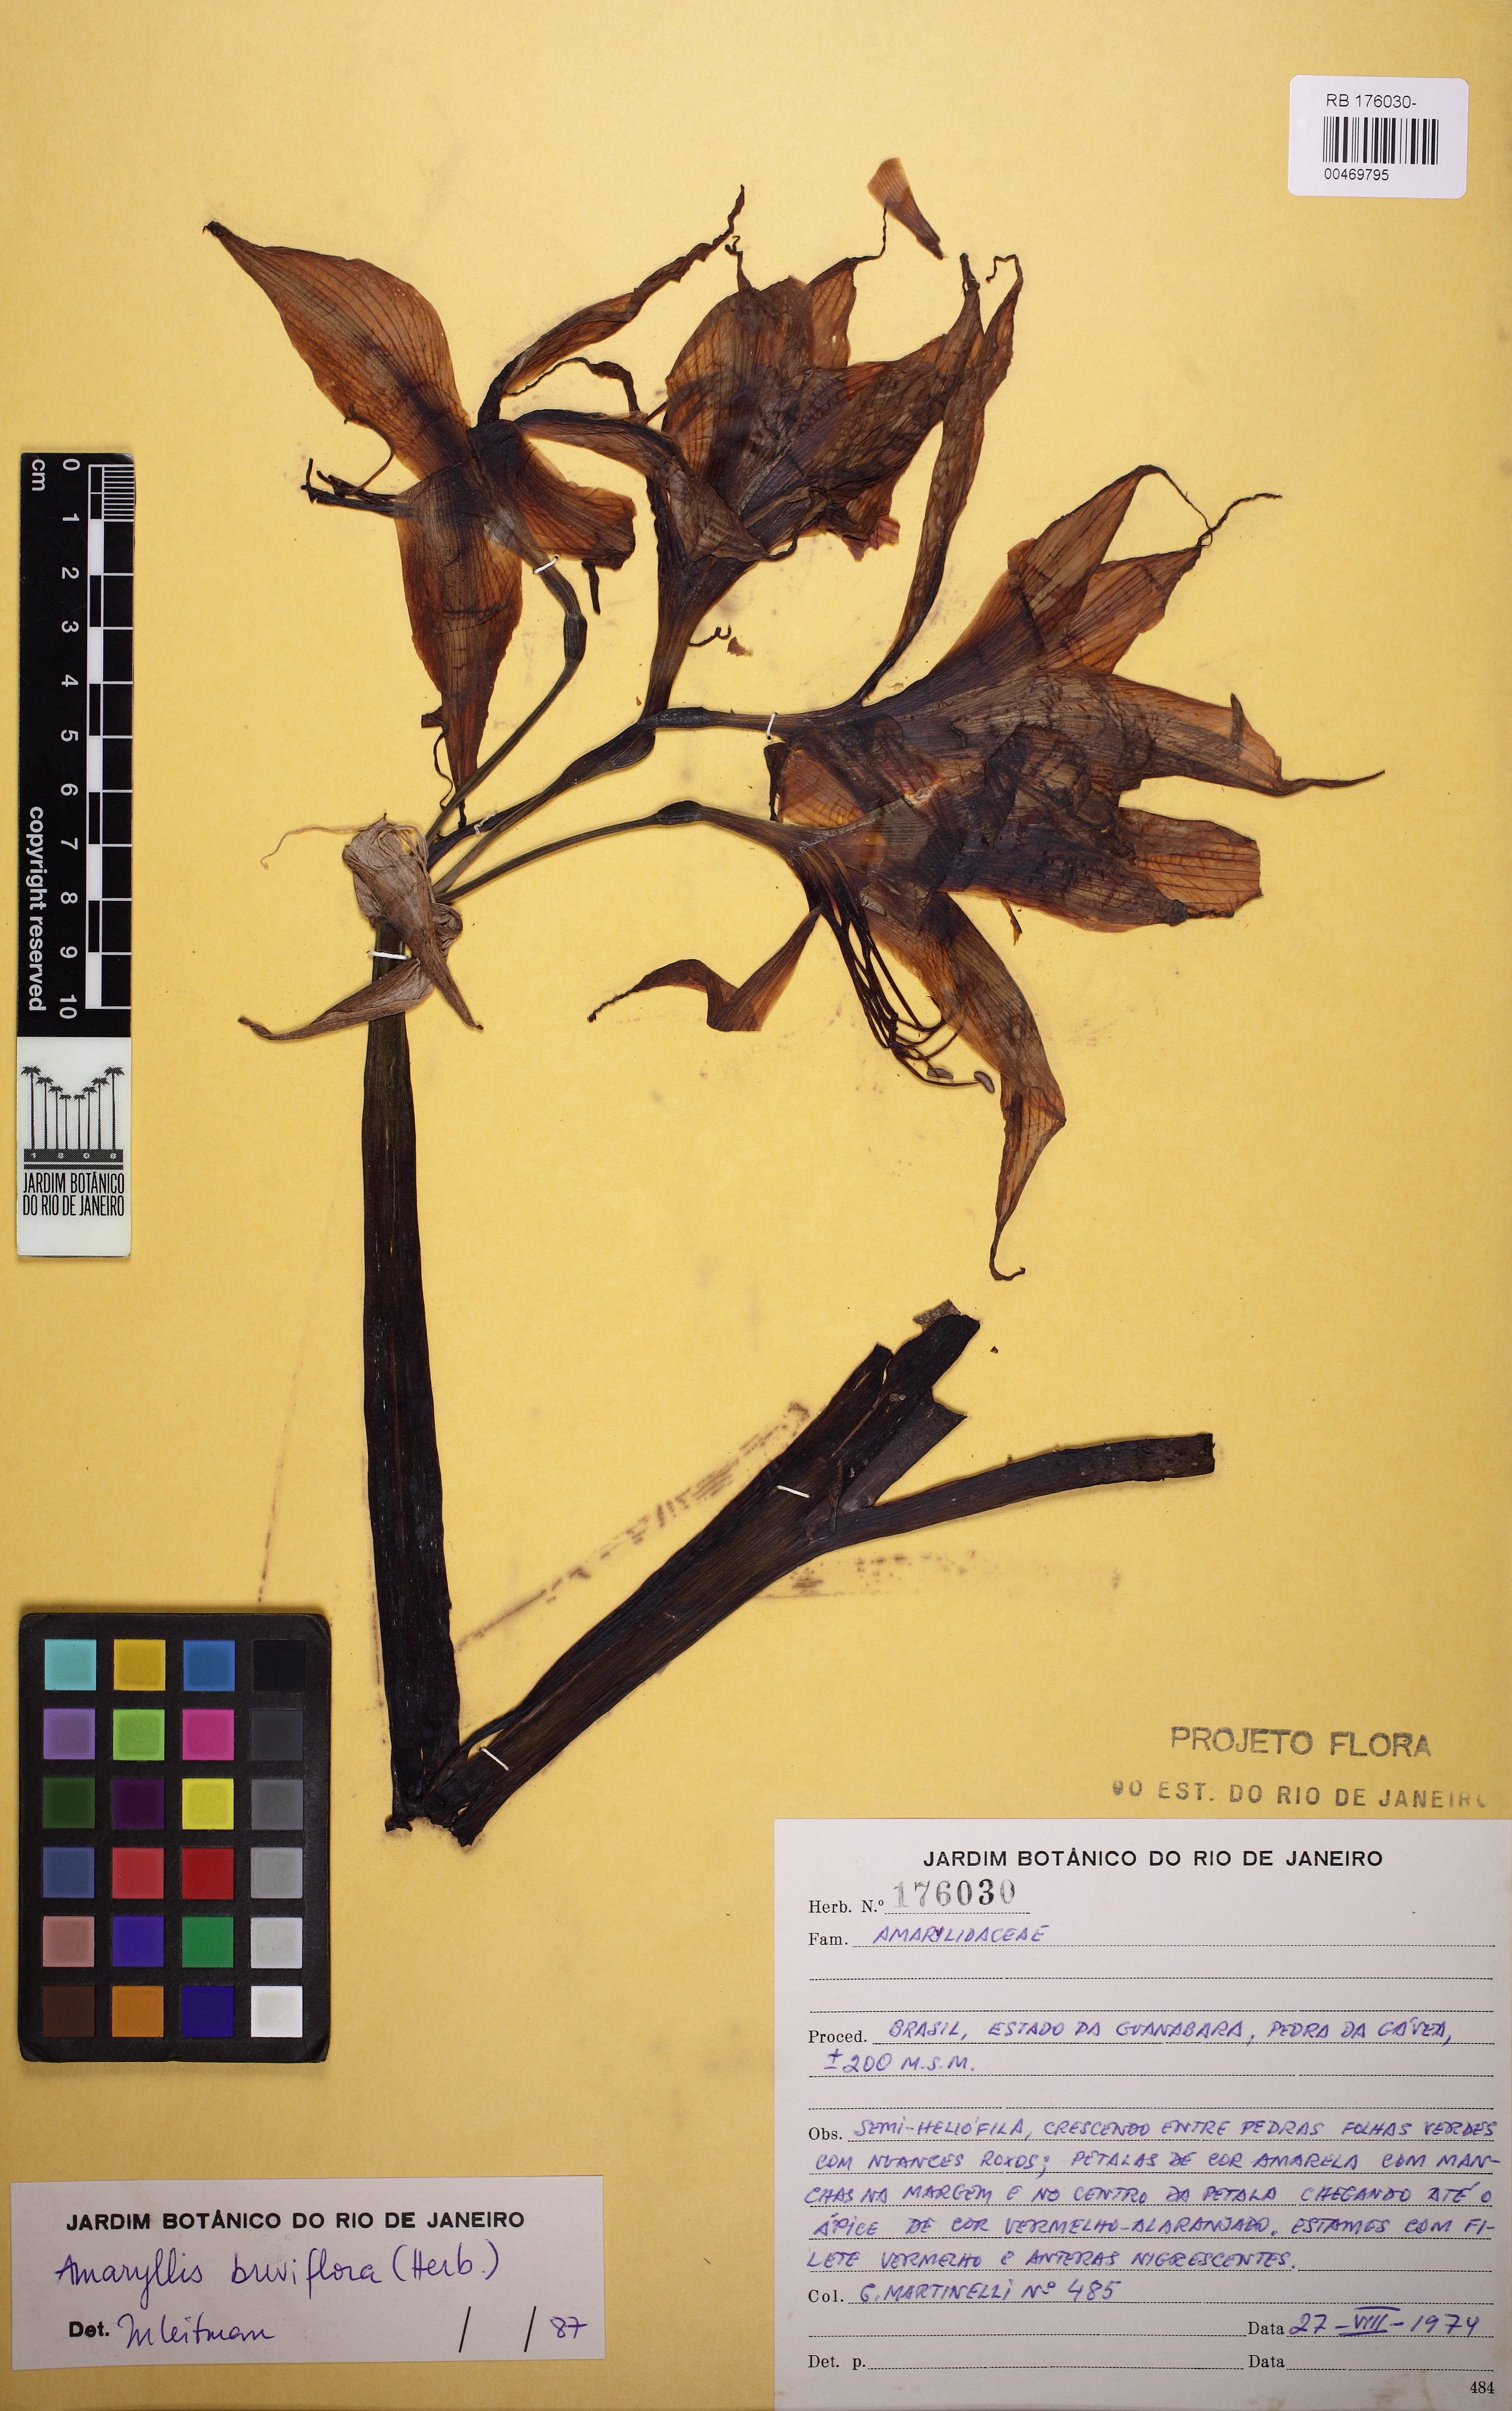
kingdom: Plantae
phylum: Tracheophyta
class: Liliopsida
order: Asparagales
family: Amaryllidaceae
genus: Hippeastrum
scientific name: Hippeastrum blossfeldiae
